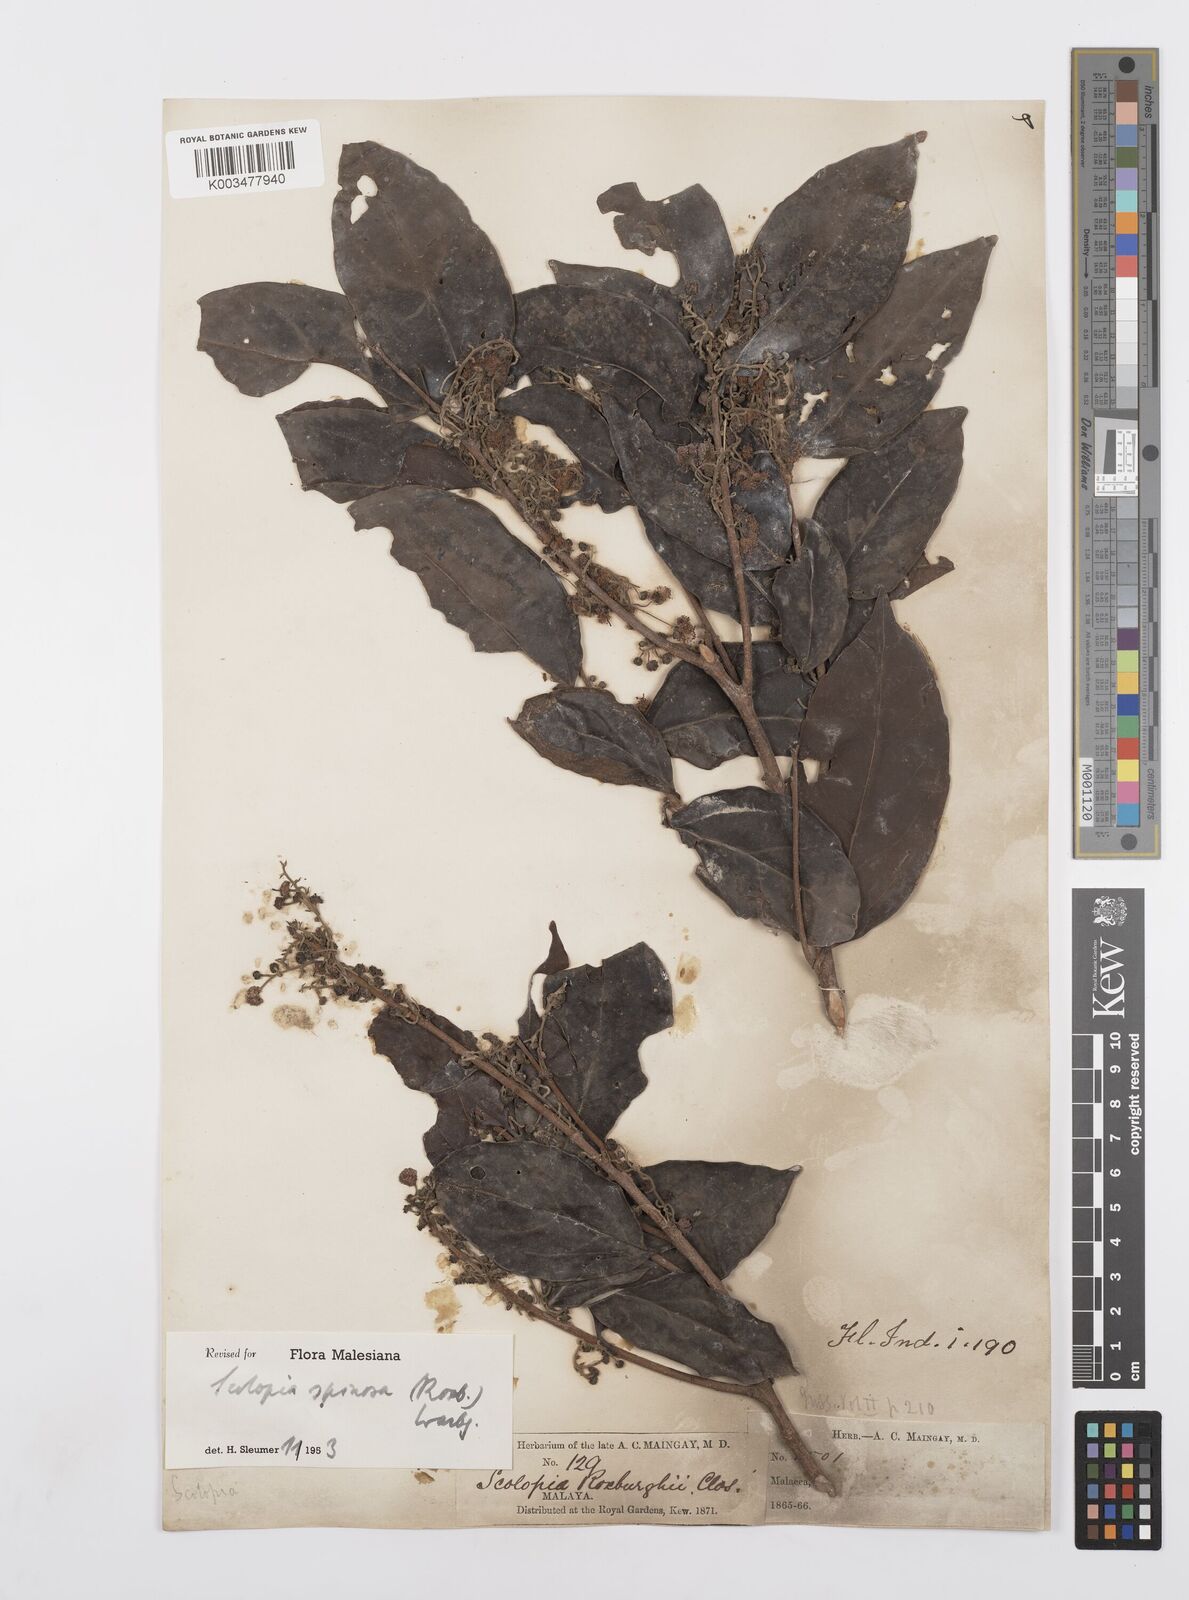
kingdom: Plantae
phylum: Tracheophyta
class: Magnoliopsida
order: Malpighiales
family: Salicaceae
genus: Scolopia
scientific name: Scolopia spinosa
